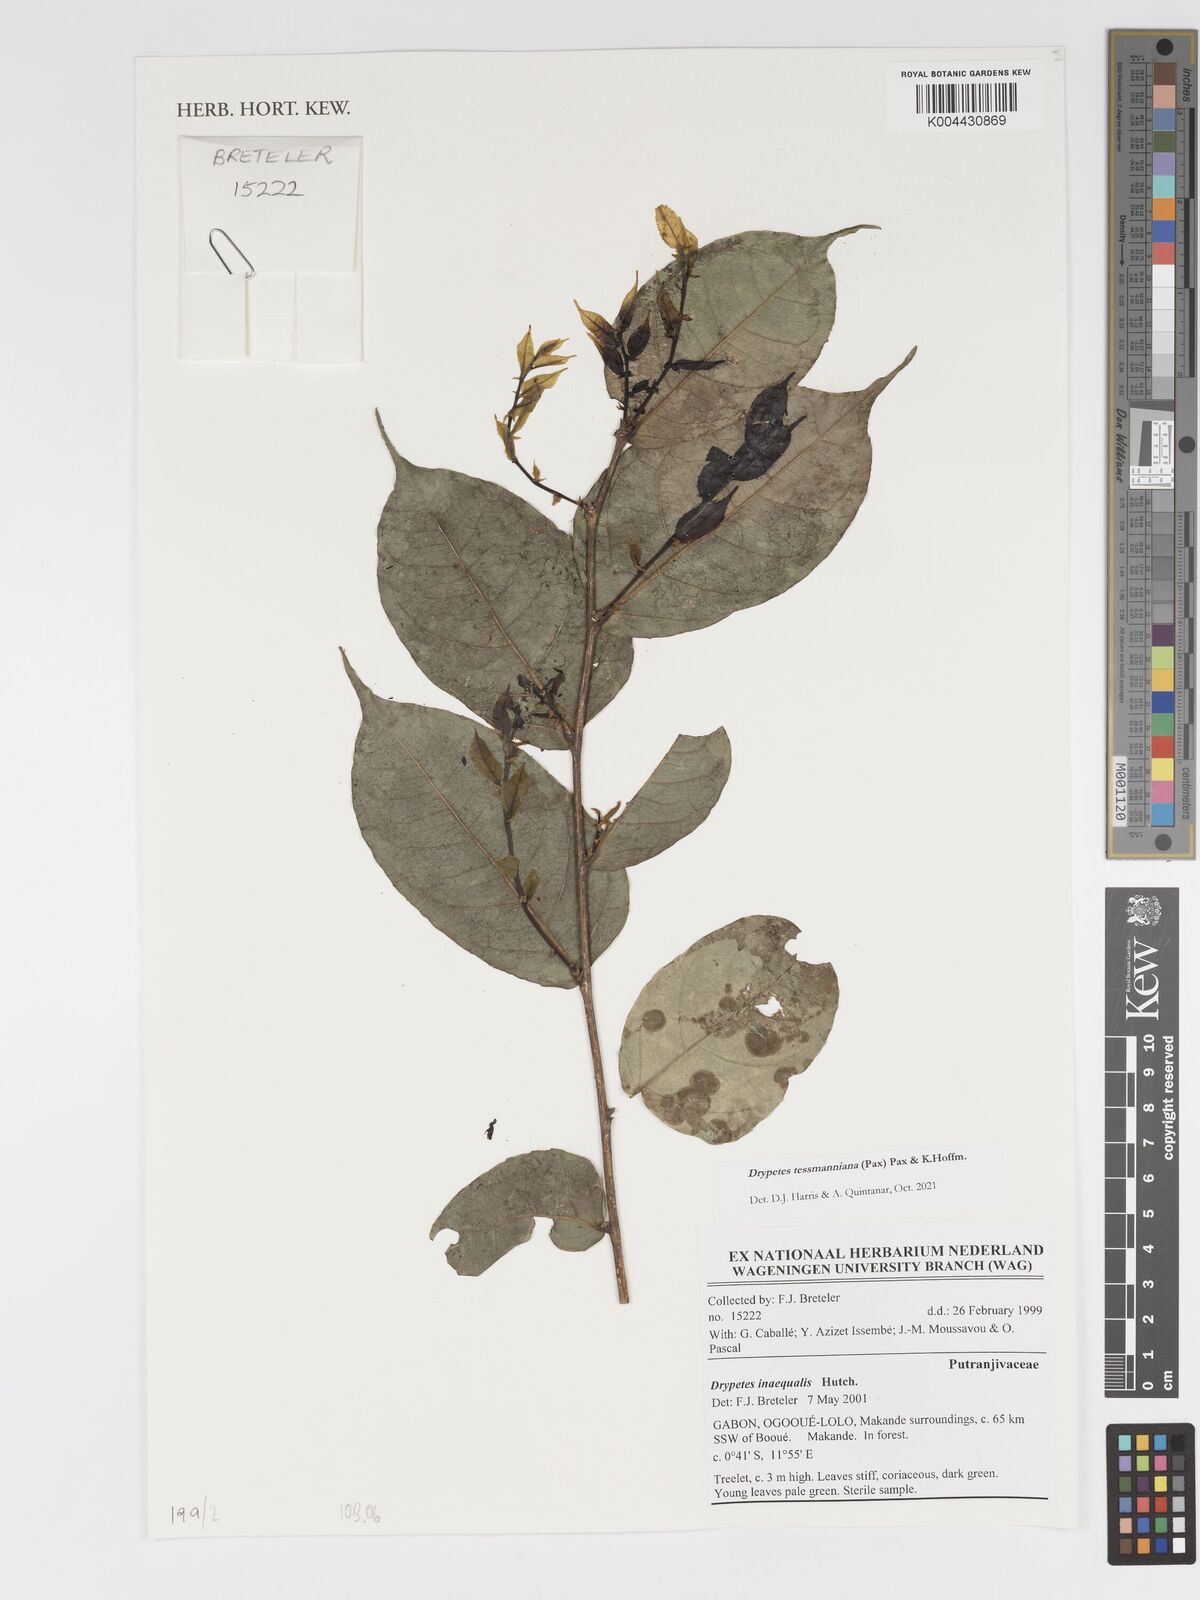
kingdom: Plantae
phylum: Tracheophyta
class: Magnoliopsida
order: Malpighiales
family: Putranjivaceae
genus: Drypetes
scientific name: Drypetes tessmanniana
